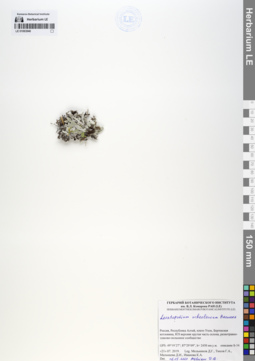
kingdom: Plantae
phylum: Tracheophyta
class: Magnoliopsida
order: Asterales
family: Asteraceae
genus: Leontopodium
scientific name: Leontopodium leontopodinum
